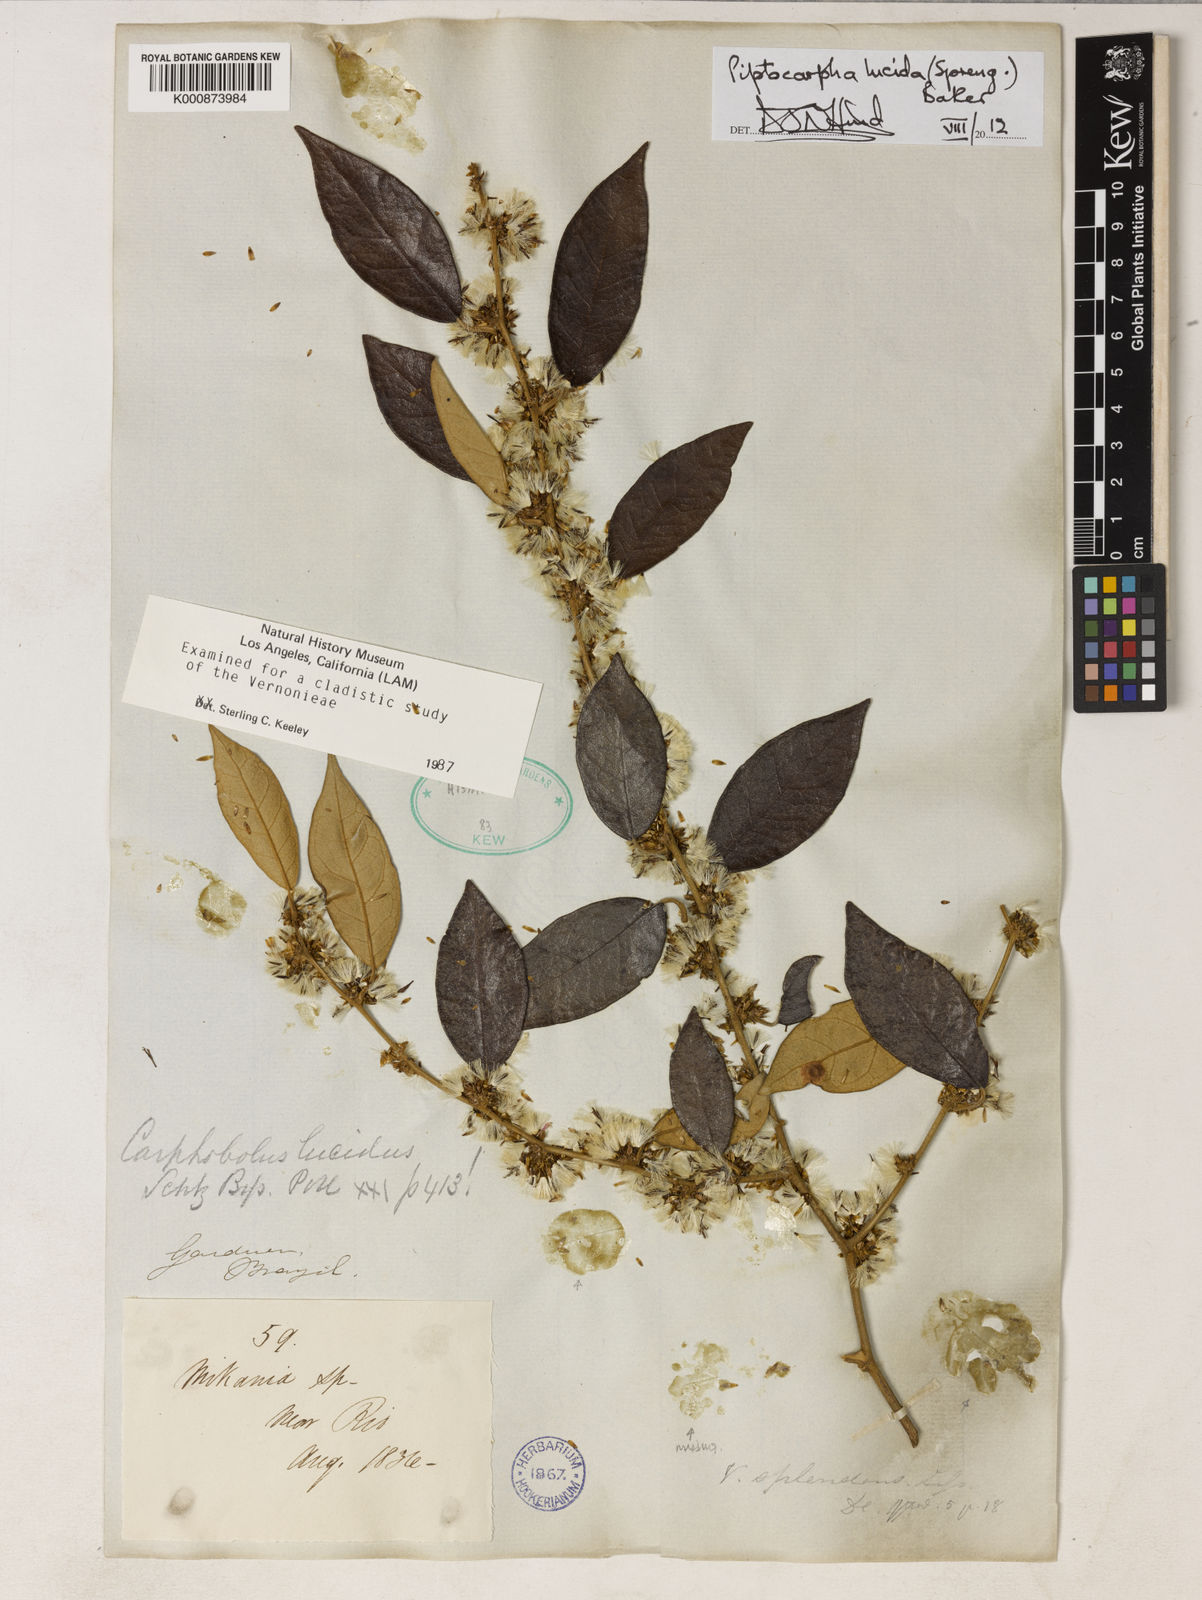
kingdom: Plantae
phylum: Tracheophyta
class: Magnoliopsida
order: Asterales
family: Asteraceae
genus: Piptocarpha
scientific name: Piptocarpha lucida
